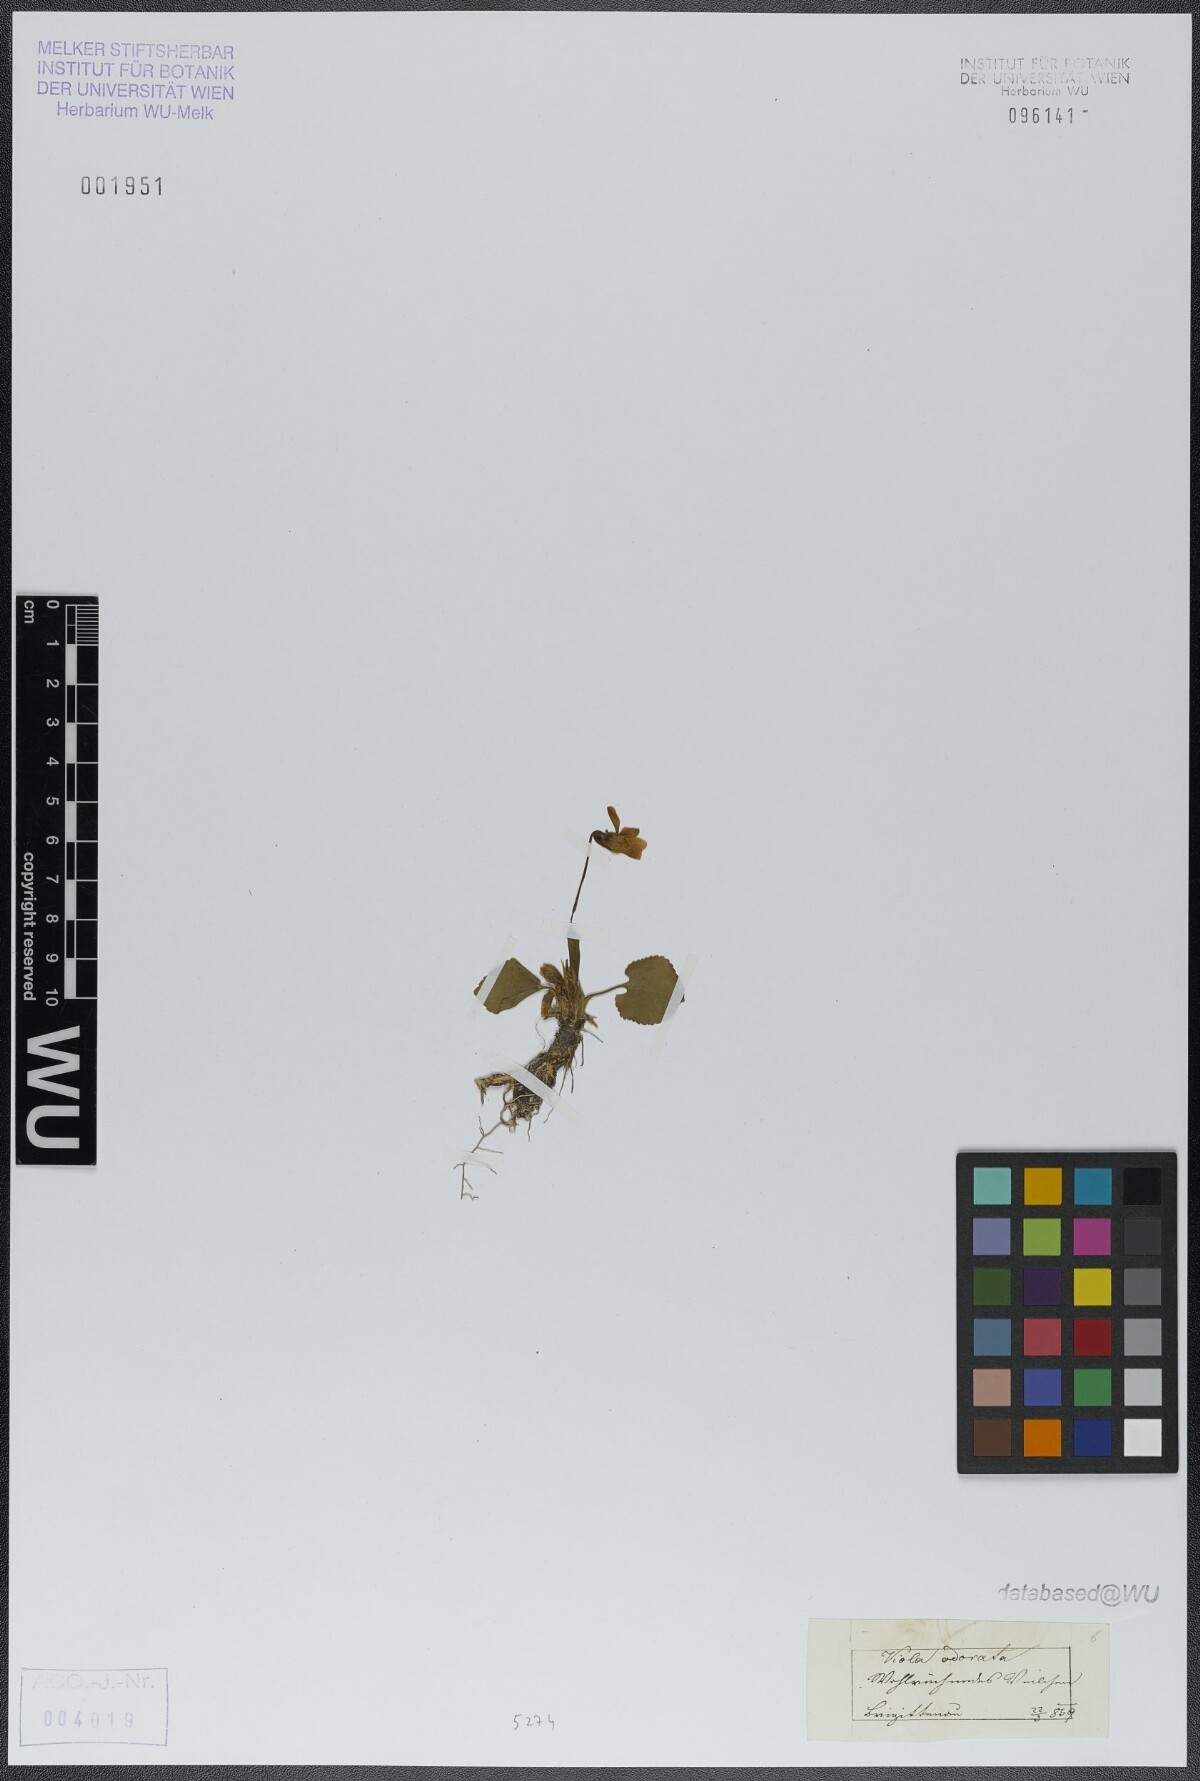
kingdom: Plantae
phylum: Tracheophyta
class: Magnoliopsida
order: Malpighiales
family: Violaceae
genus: Viola
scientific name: Viola odorata
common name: Sweet violet
